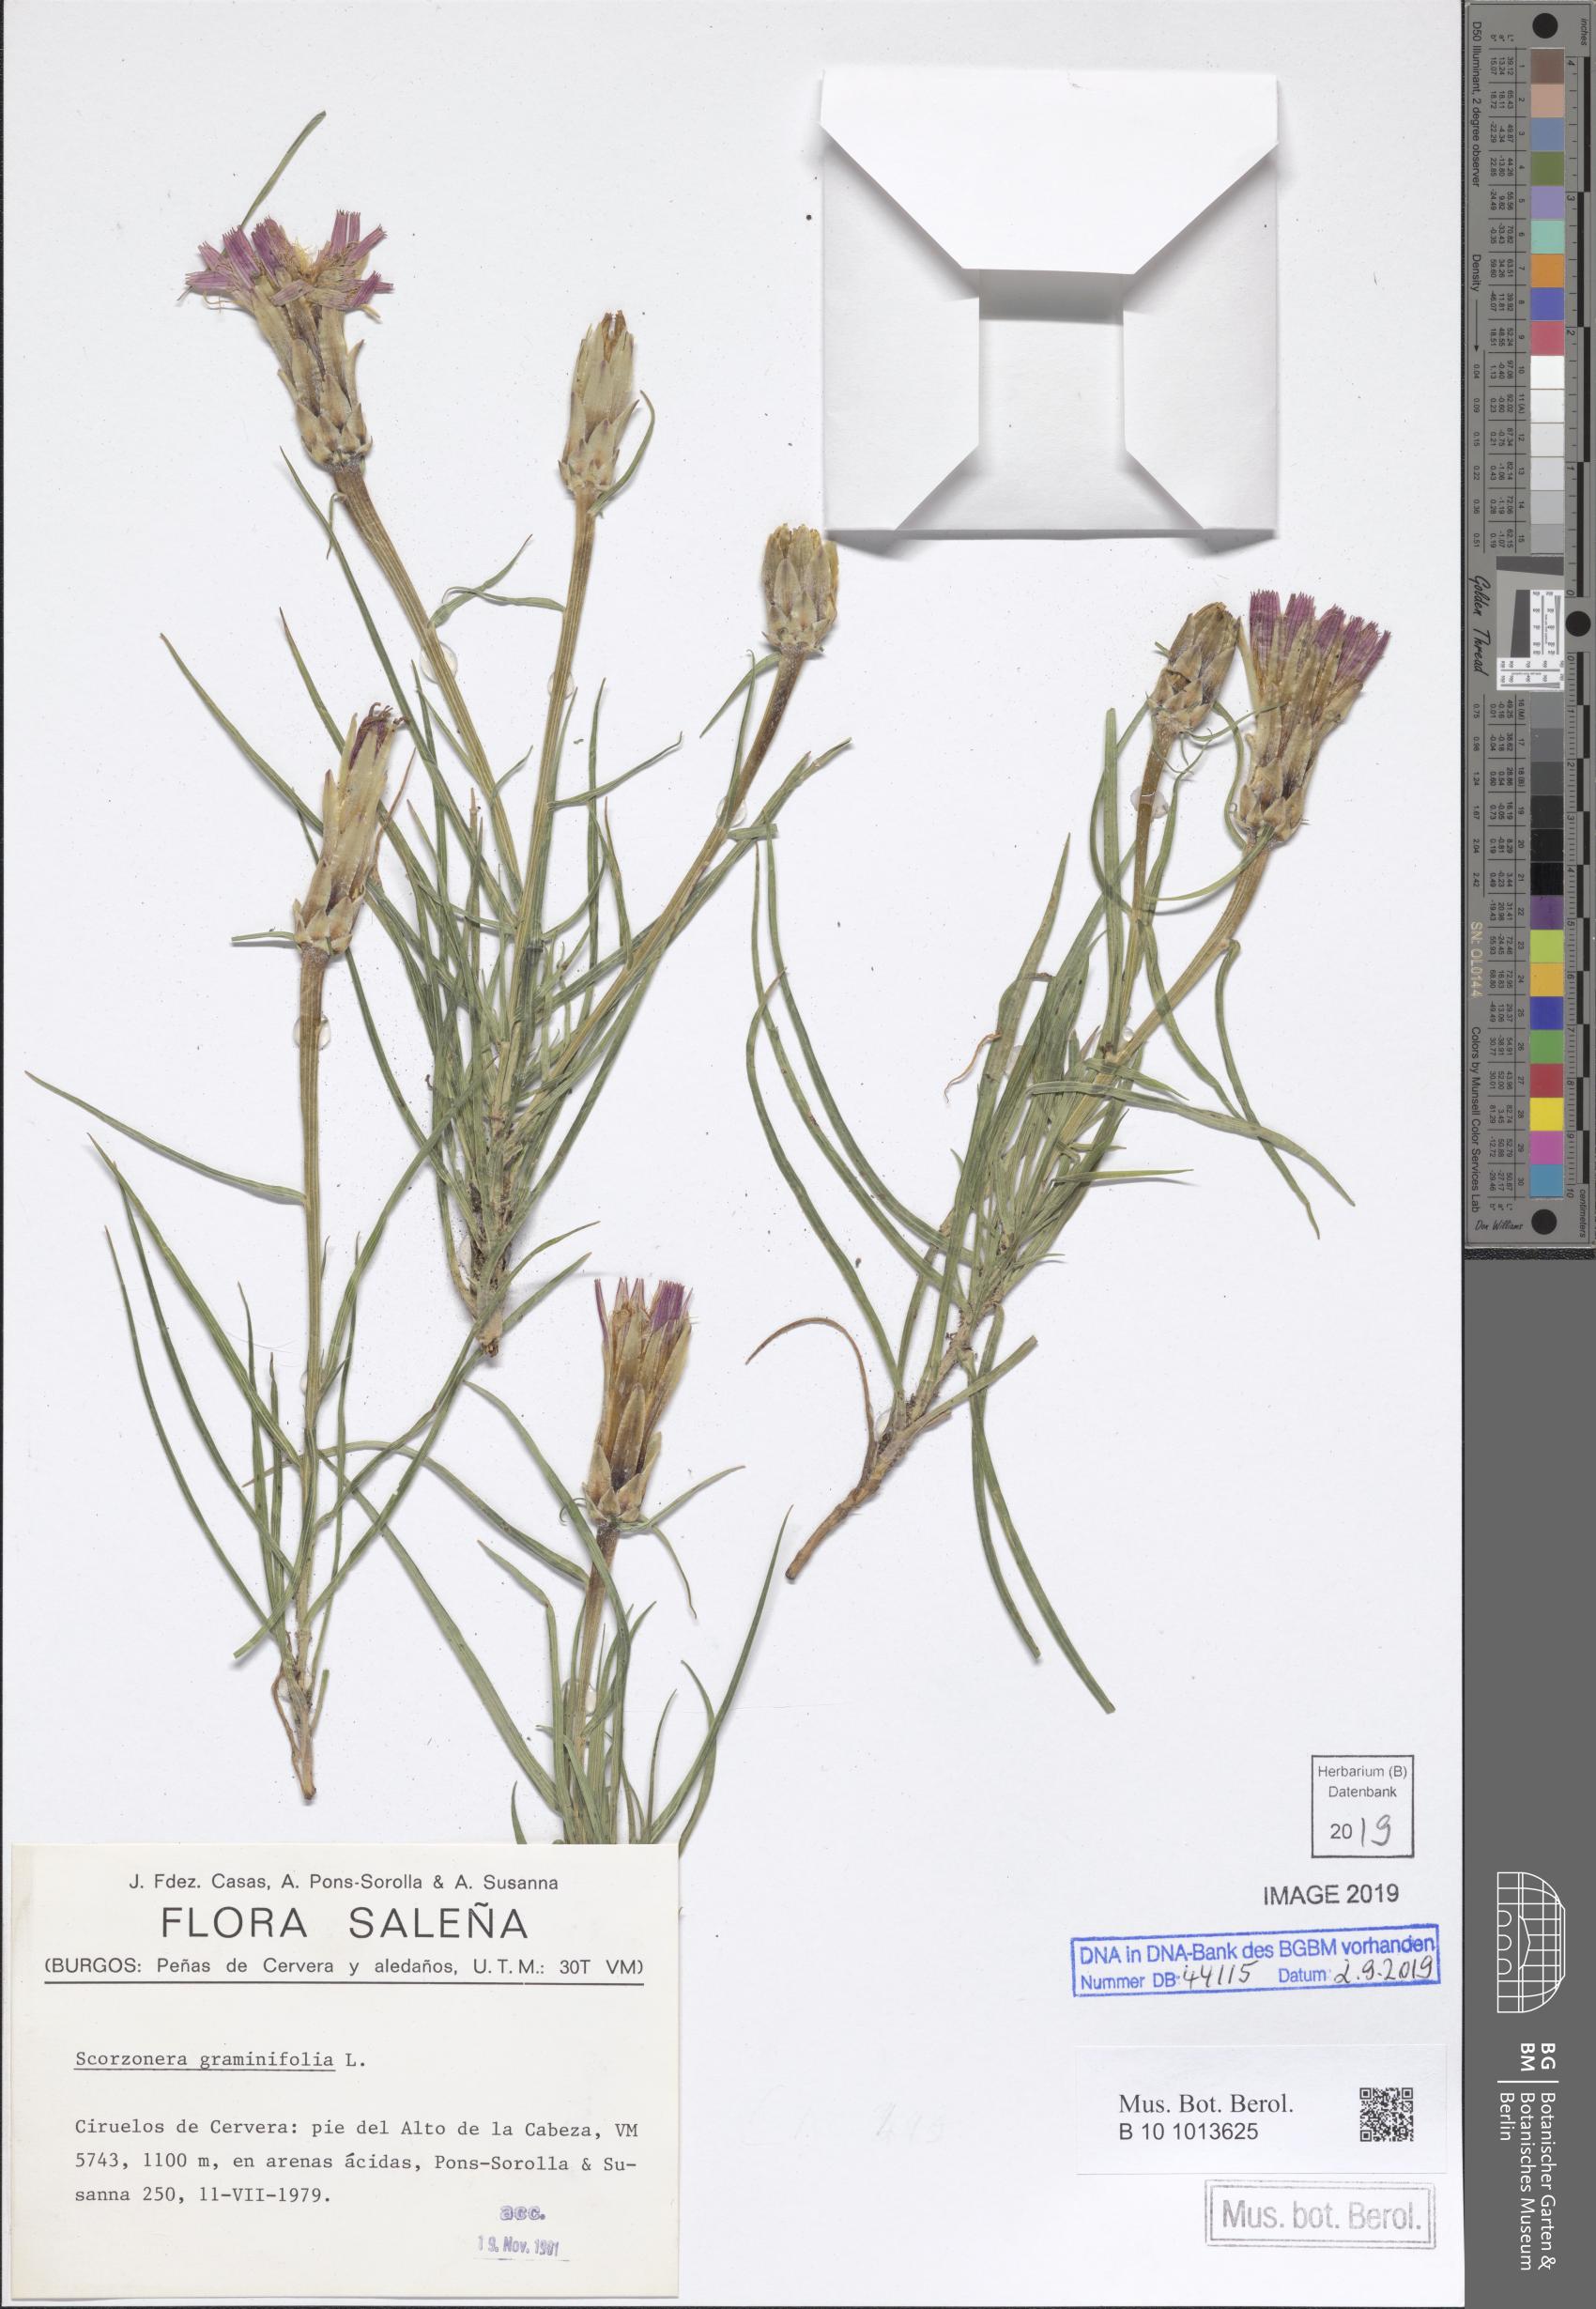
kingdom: Plantae
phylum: Tracheophyta
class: Magnoliopsida
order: Asterales
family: Asteraceae
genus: Scorzonera
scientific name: Scorzonera graminifolia
